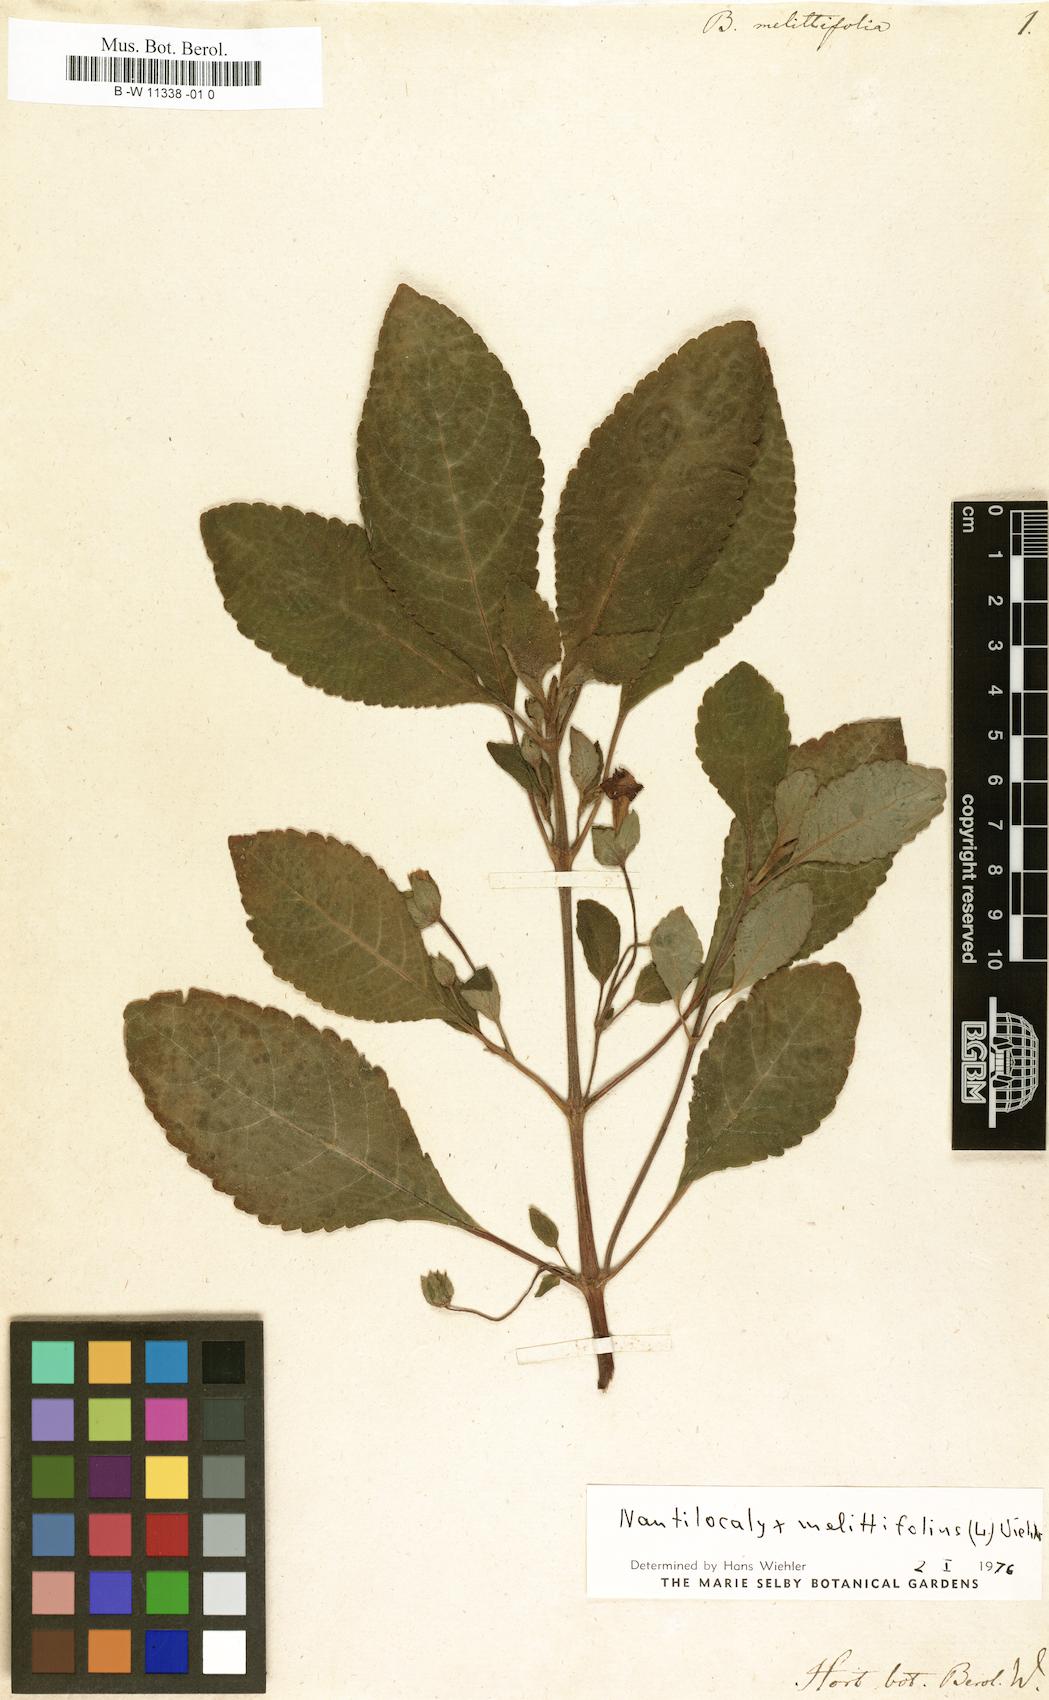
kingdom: Plantae
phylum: Tracheophyta
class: Magnoliopsida
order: Lamiales
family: Gesneriaceae
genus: Chrysothemis
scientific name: Chrysothemis
